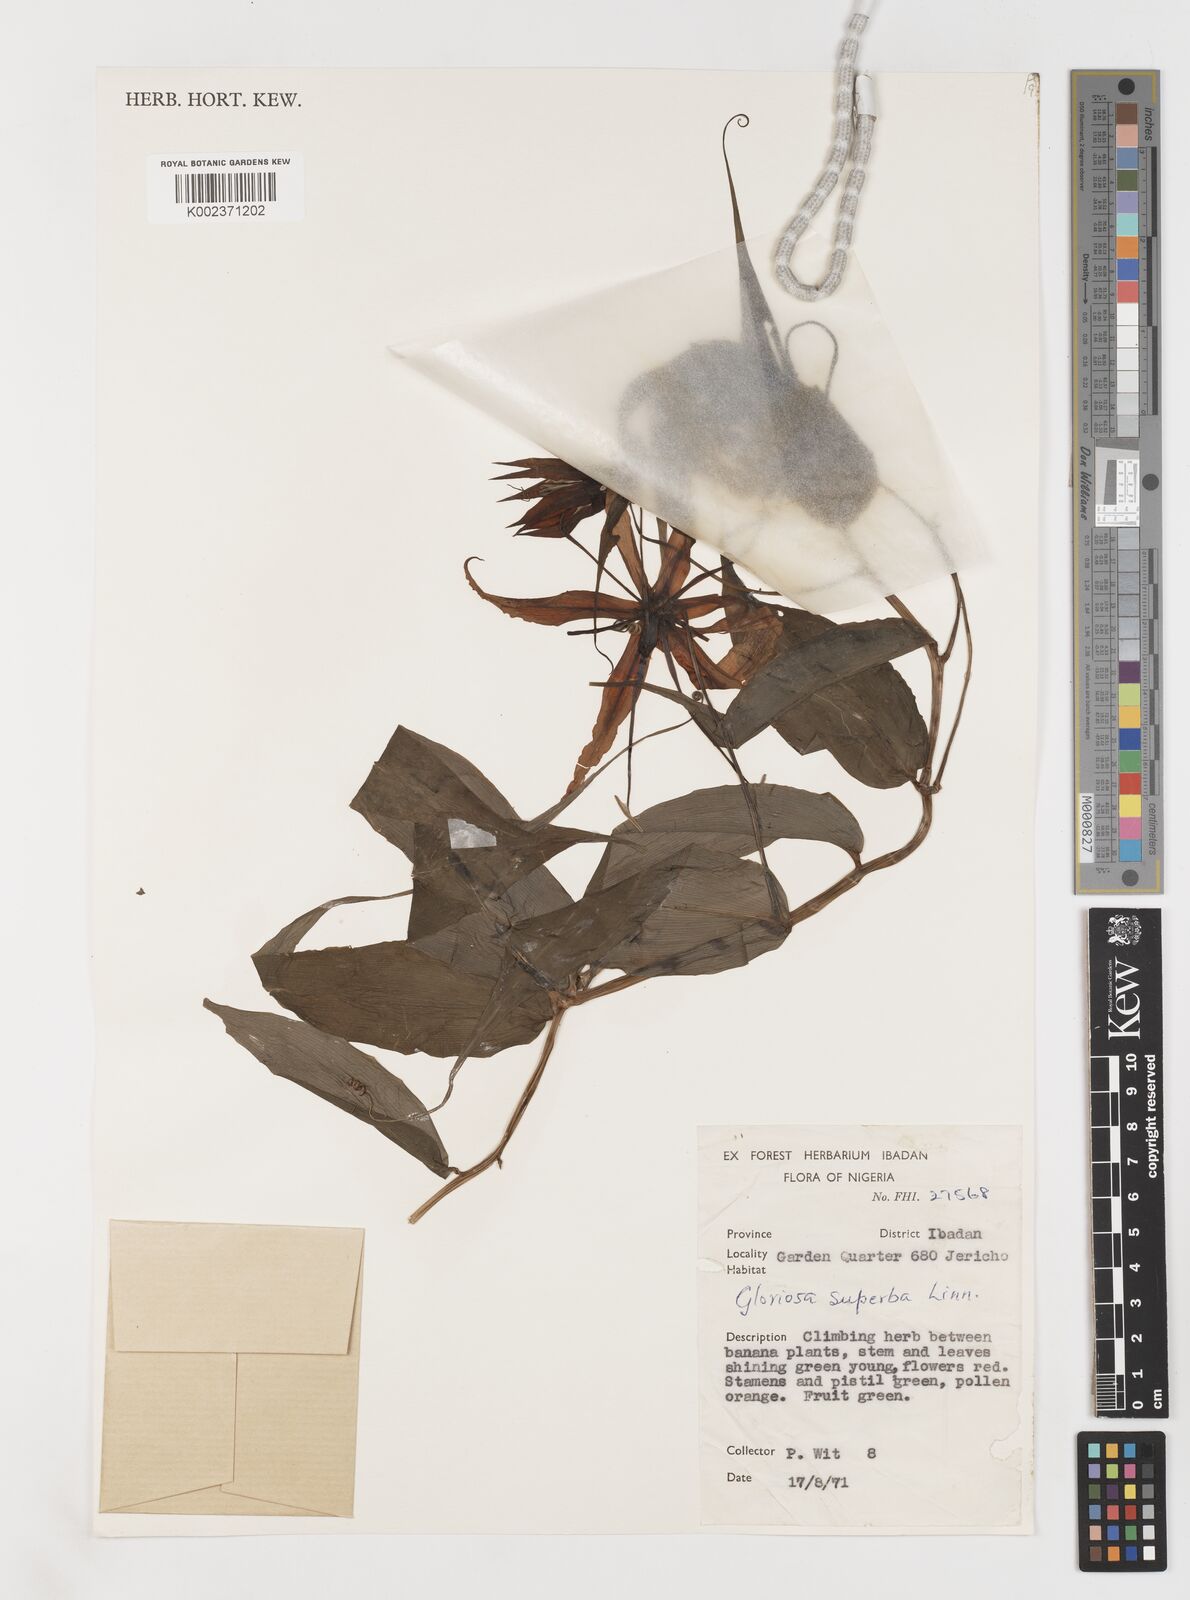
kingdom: Plantae
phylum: Tracheophyta
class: Liliopsida
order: Liliales
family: Colchicaceae
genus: Gloriosa
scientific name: Gloriosa simplex
